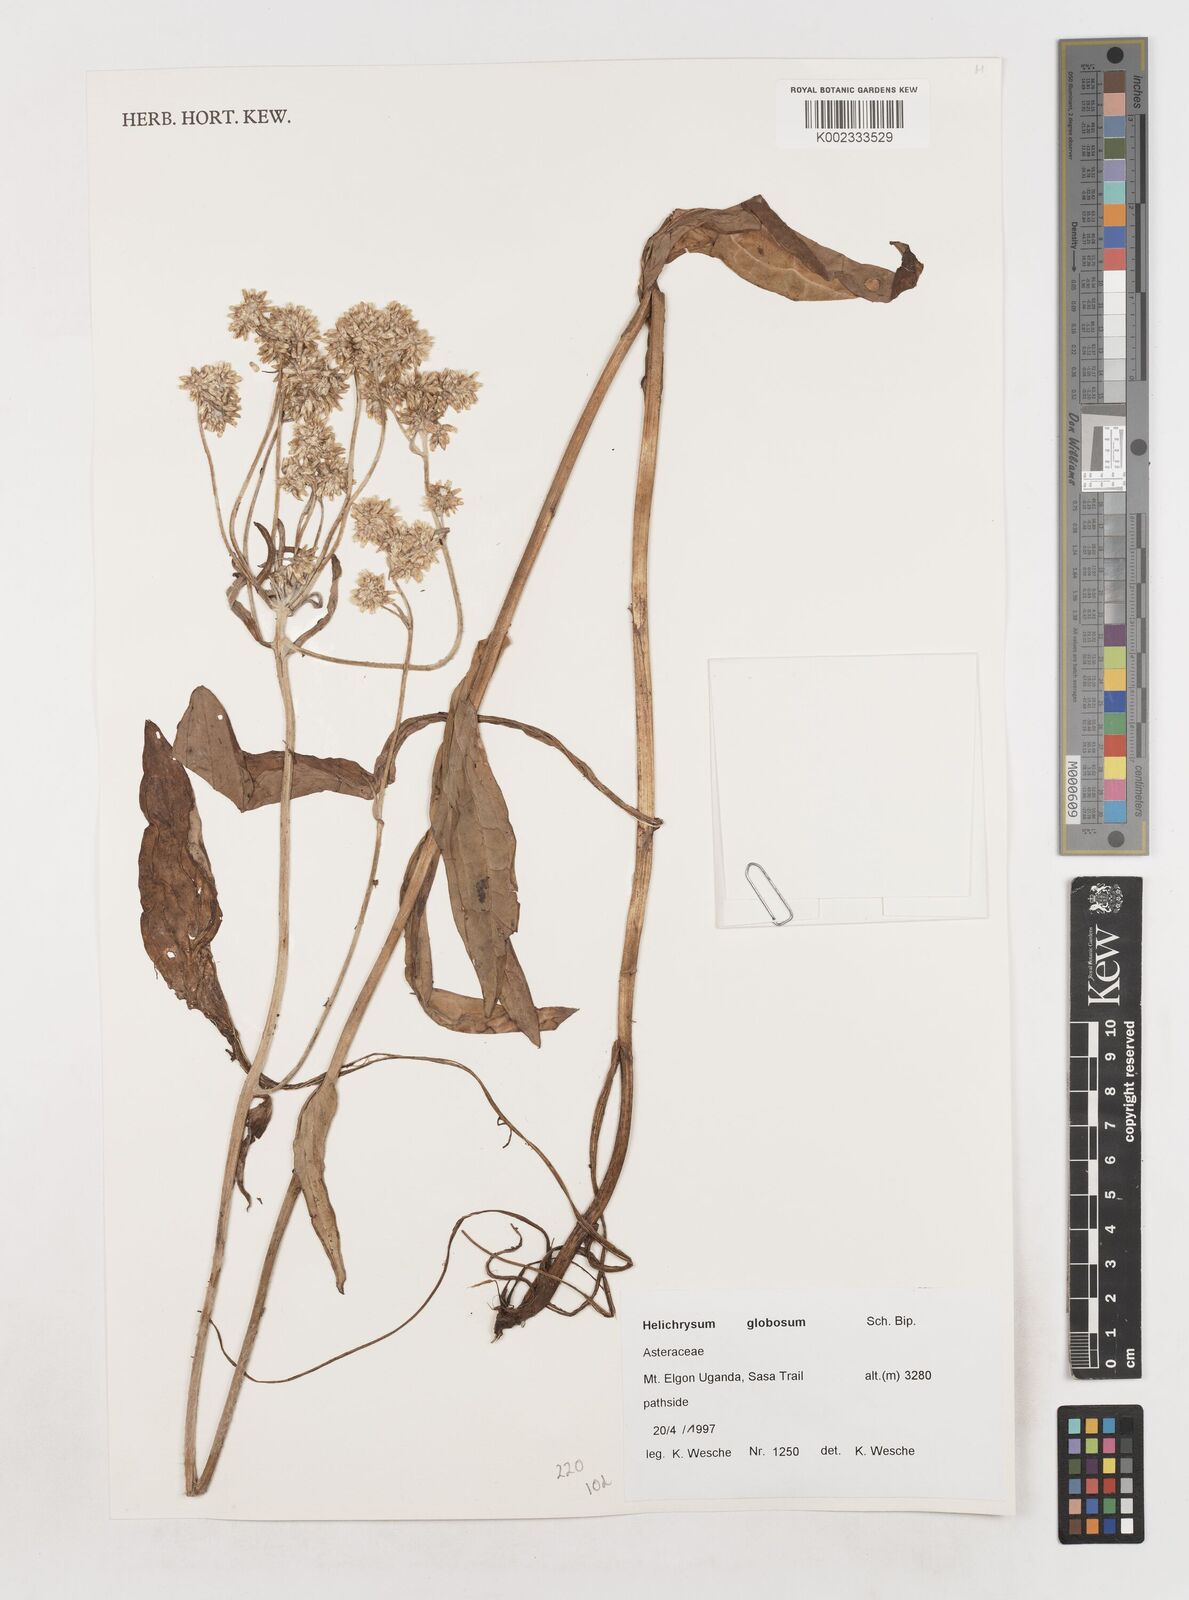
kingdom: Plantae
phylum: Tracheophyta
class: Magnoliopsida
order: Asterales
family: Asteraceae
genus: Helichrysum
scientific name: Helichrysum globosum
